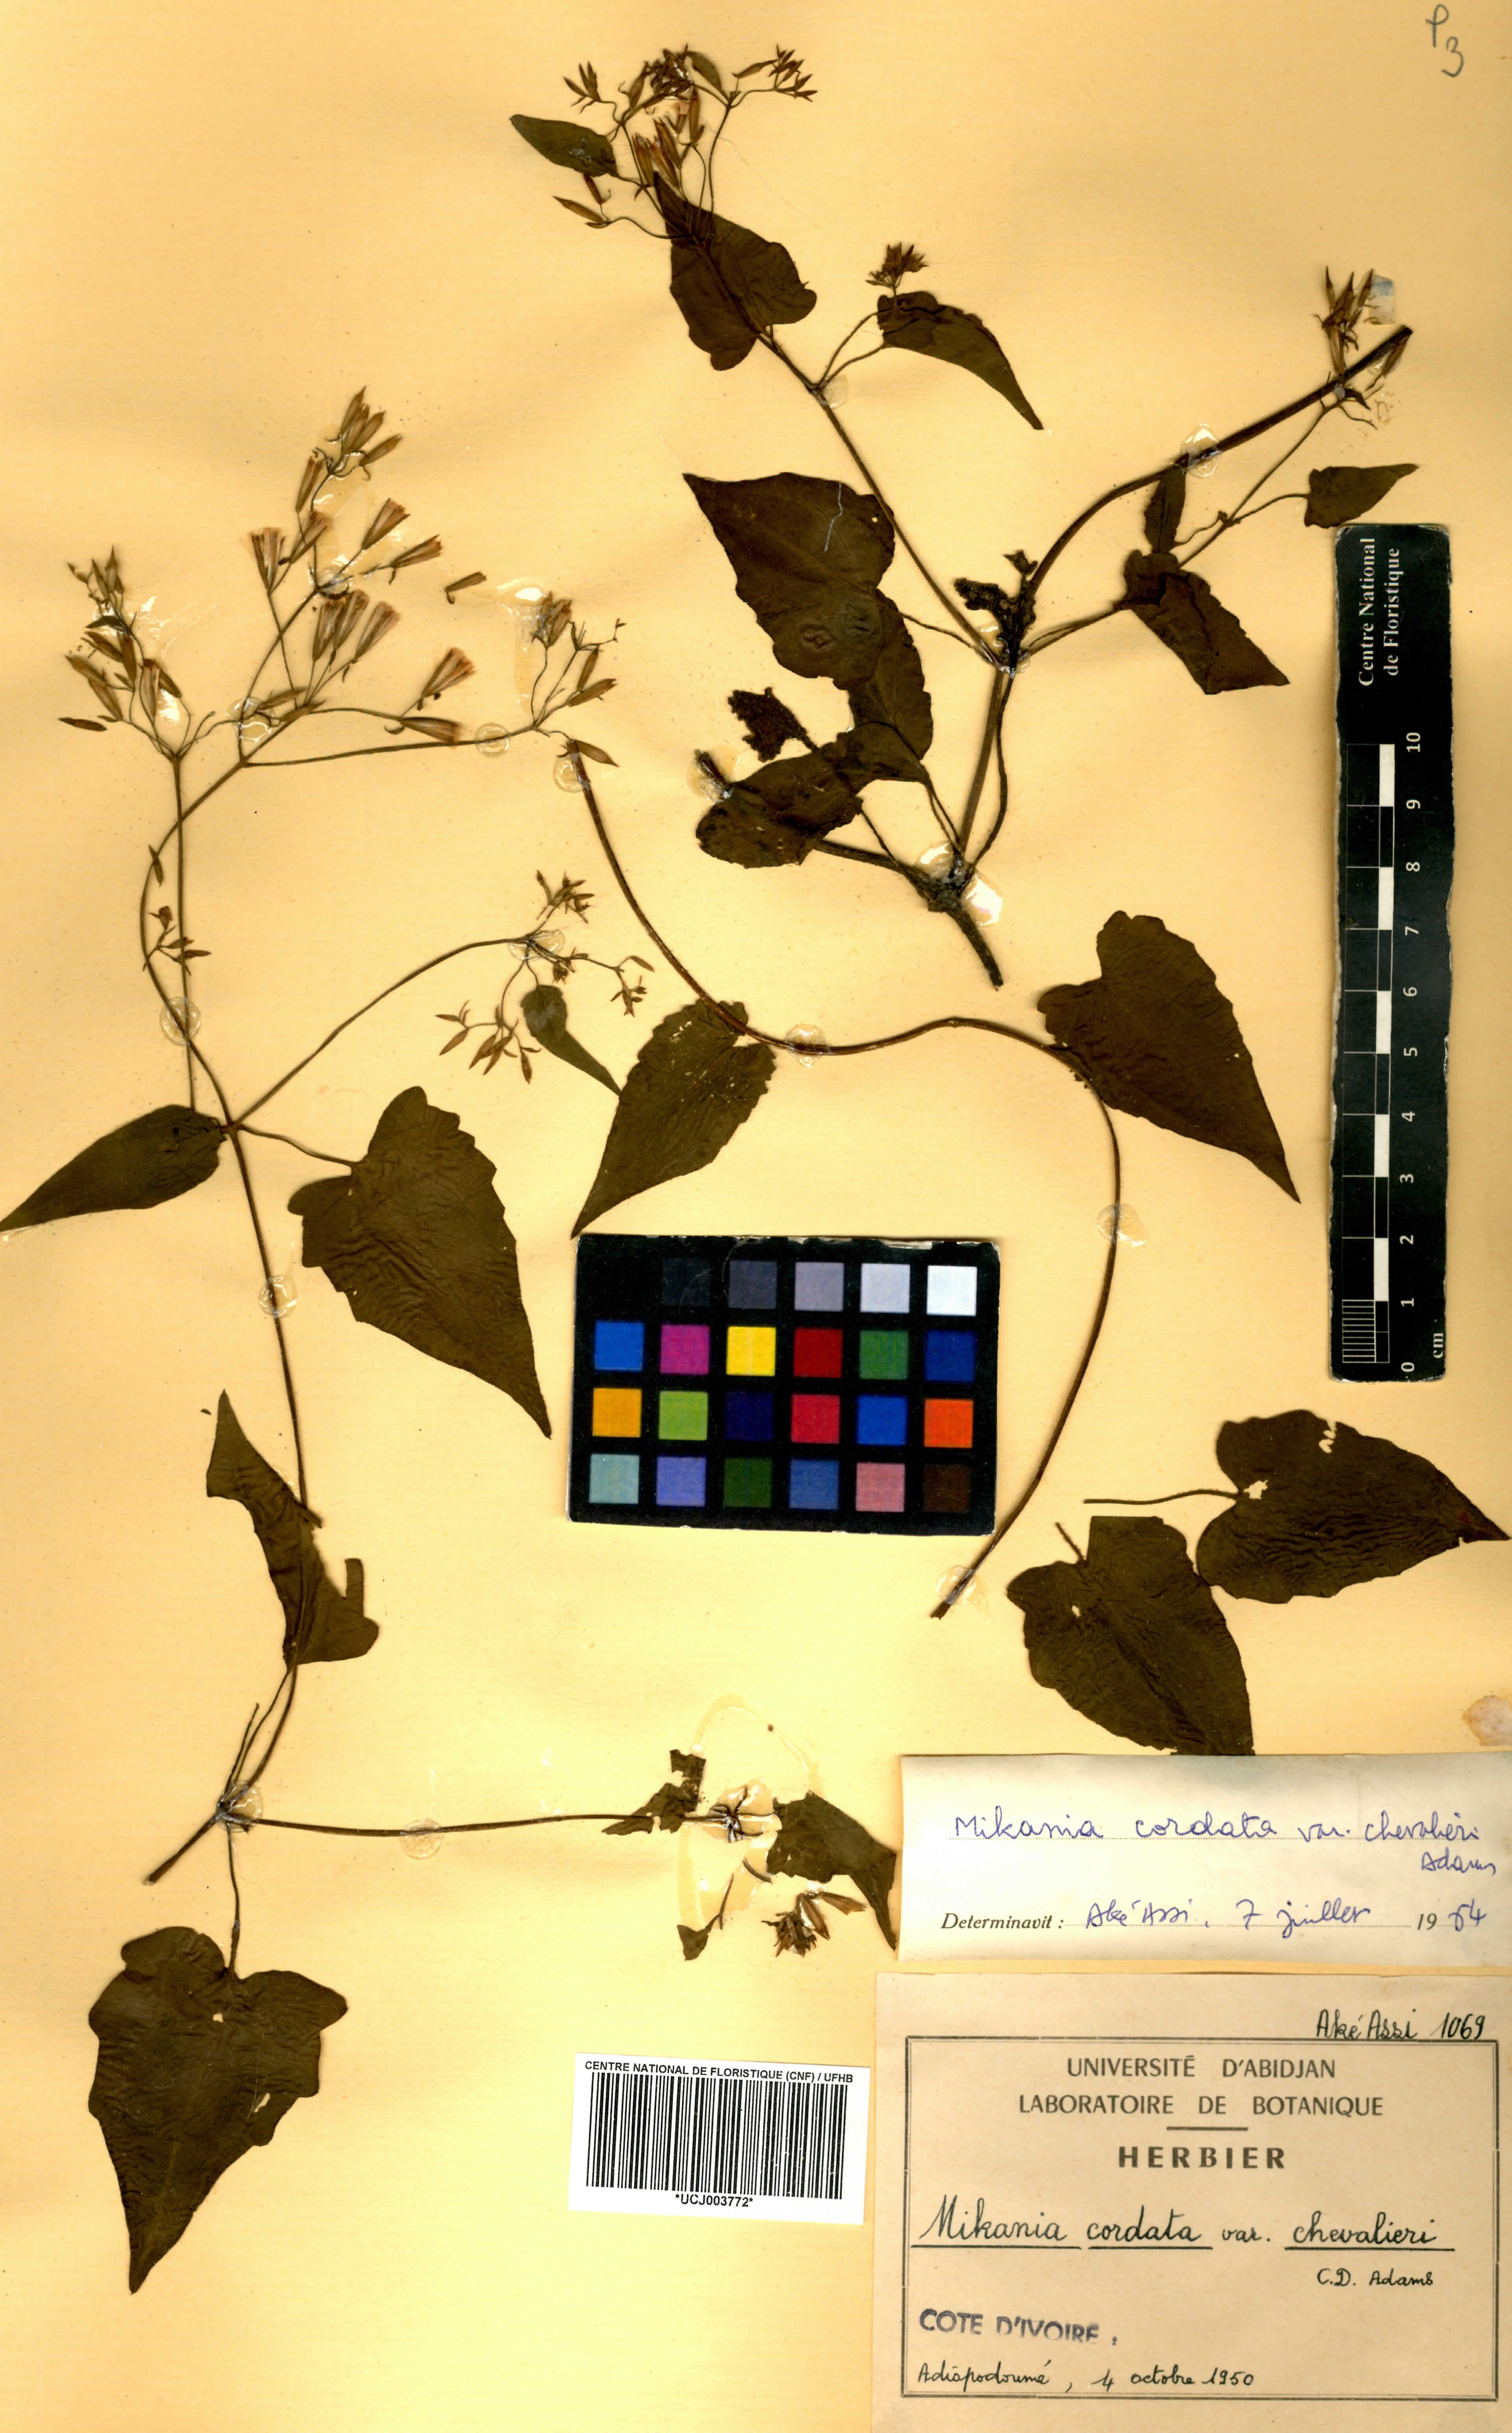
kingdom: Plantae
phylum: Tracheophyta
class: Magnoliopsida
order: Asterales
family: Asteraceae
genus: Mikania
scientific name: Mikania chevalieri
